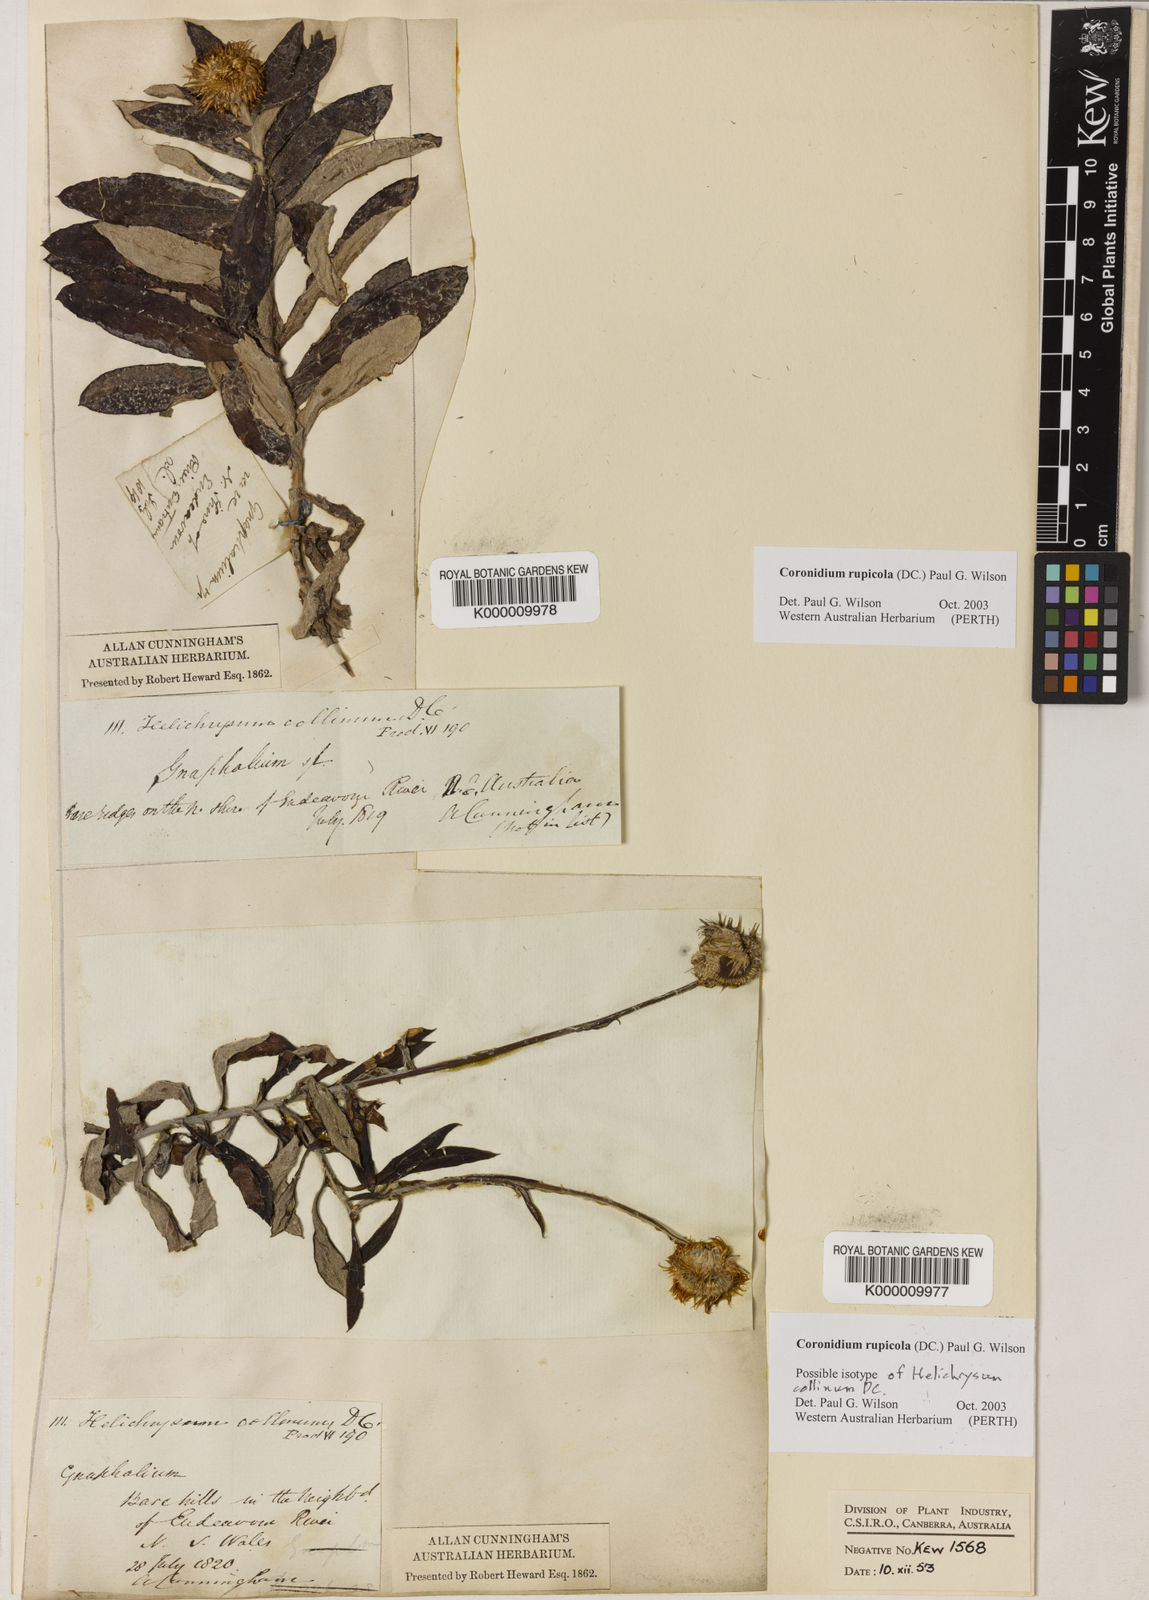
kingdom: Plantae
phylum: Tracheophyta
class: Magnoliopsida
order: Asterales
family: Asteraceae
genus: Coronidium
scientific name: Coronidium rupicola
